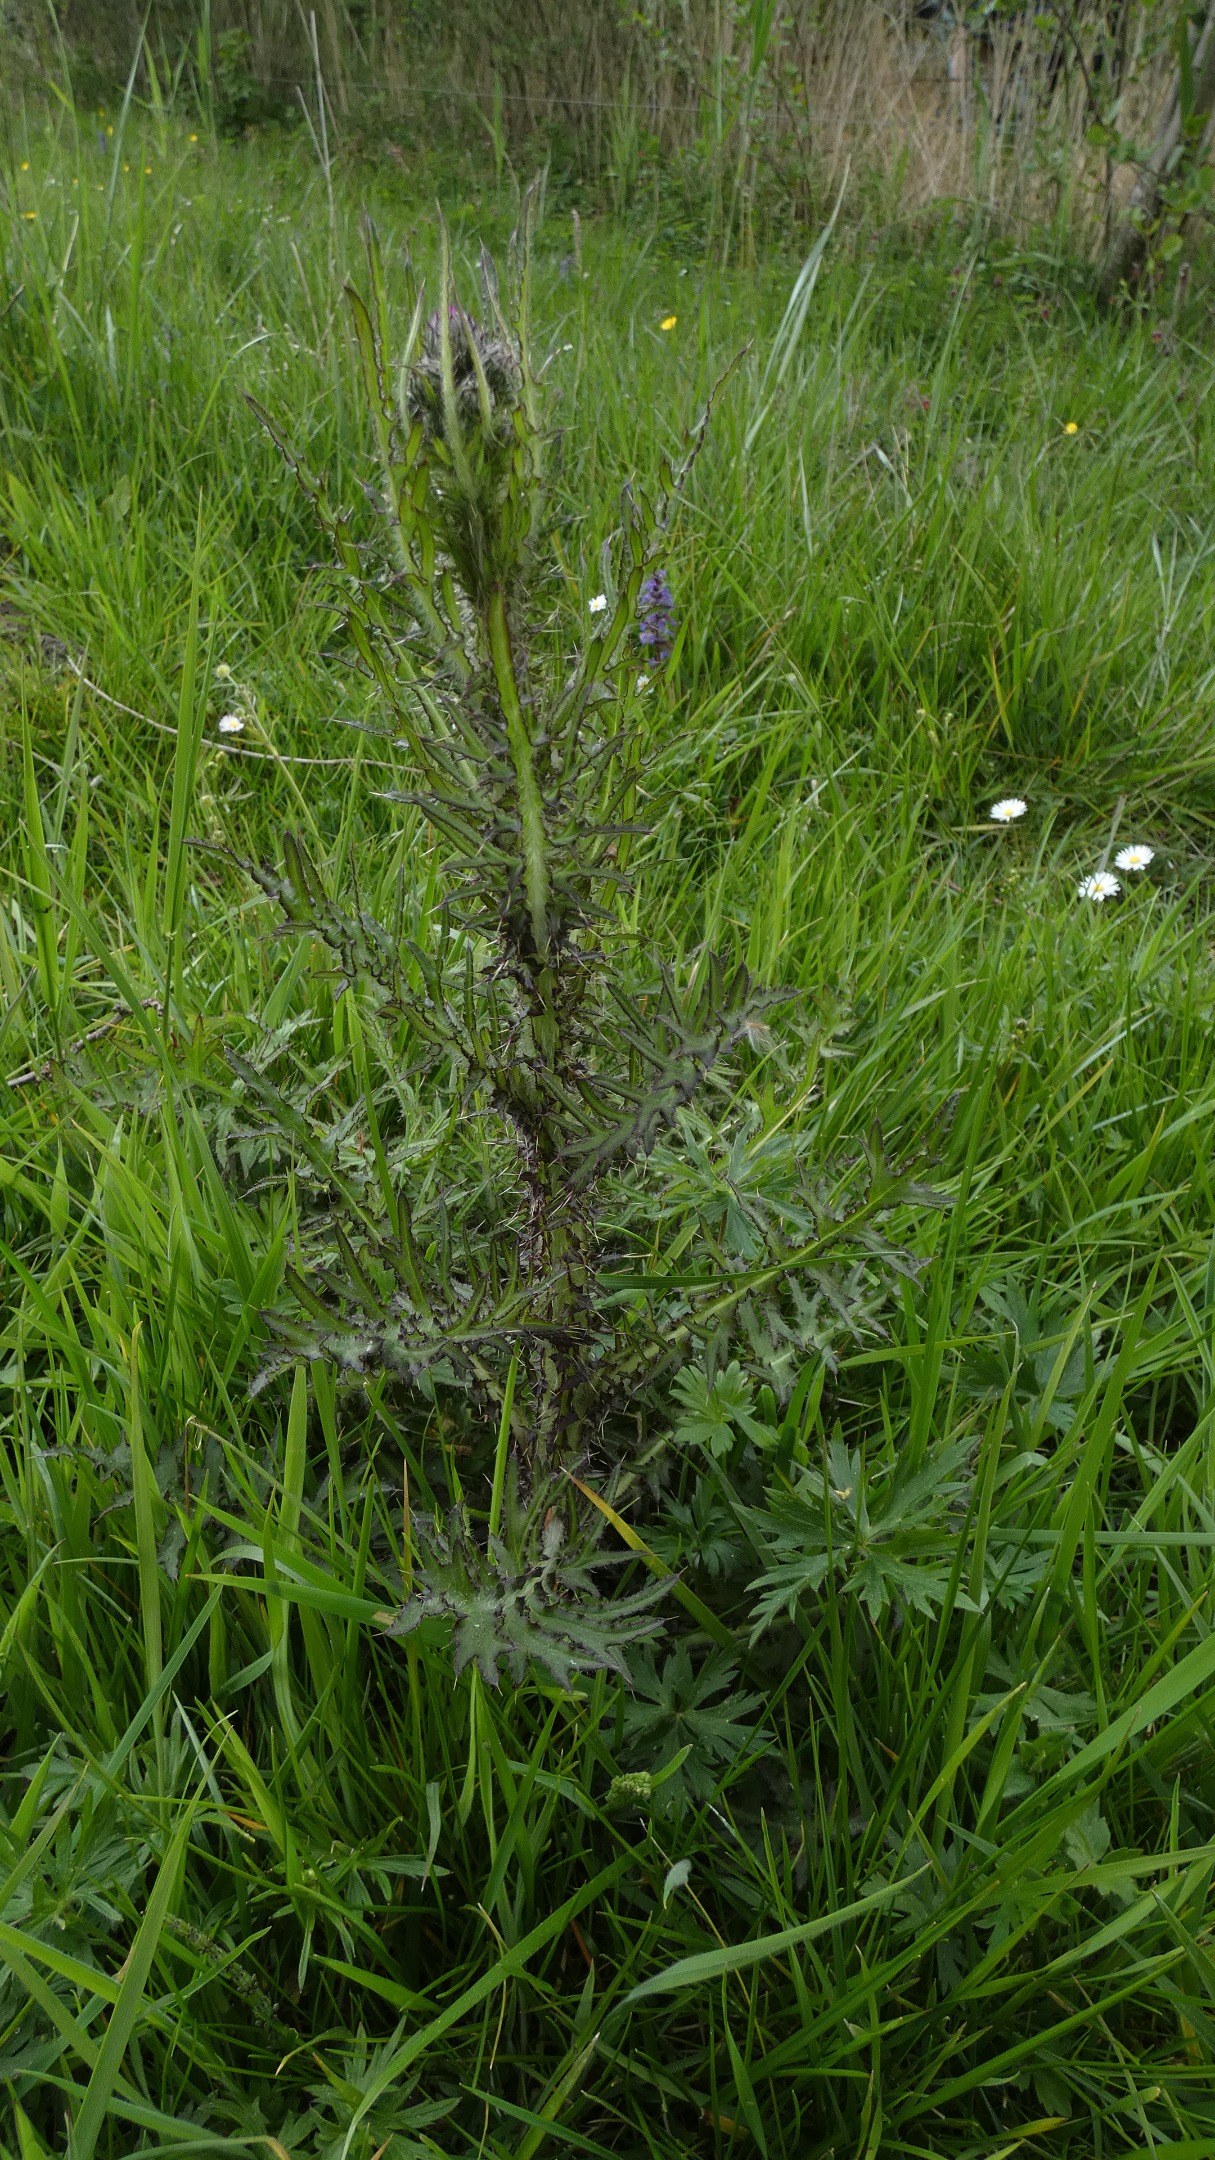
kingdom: Plantae
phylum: Tracheophyta
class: Magnoliopsida
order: Asterales
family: Asteraceae
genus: Cirsium
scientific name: Cirsium palustre
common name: Kær-tidsel
